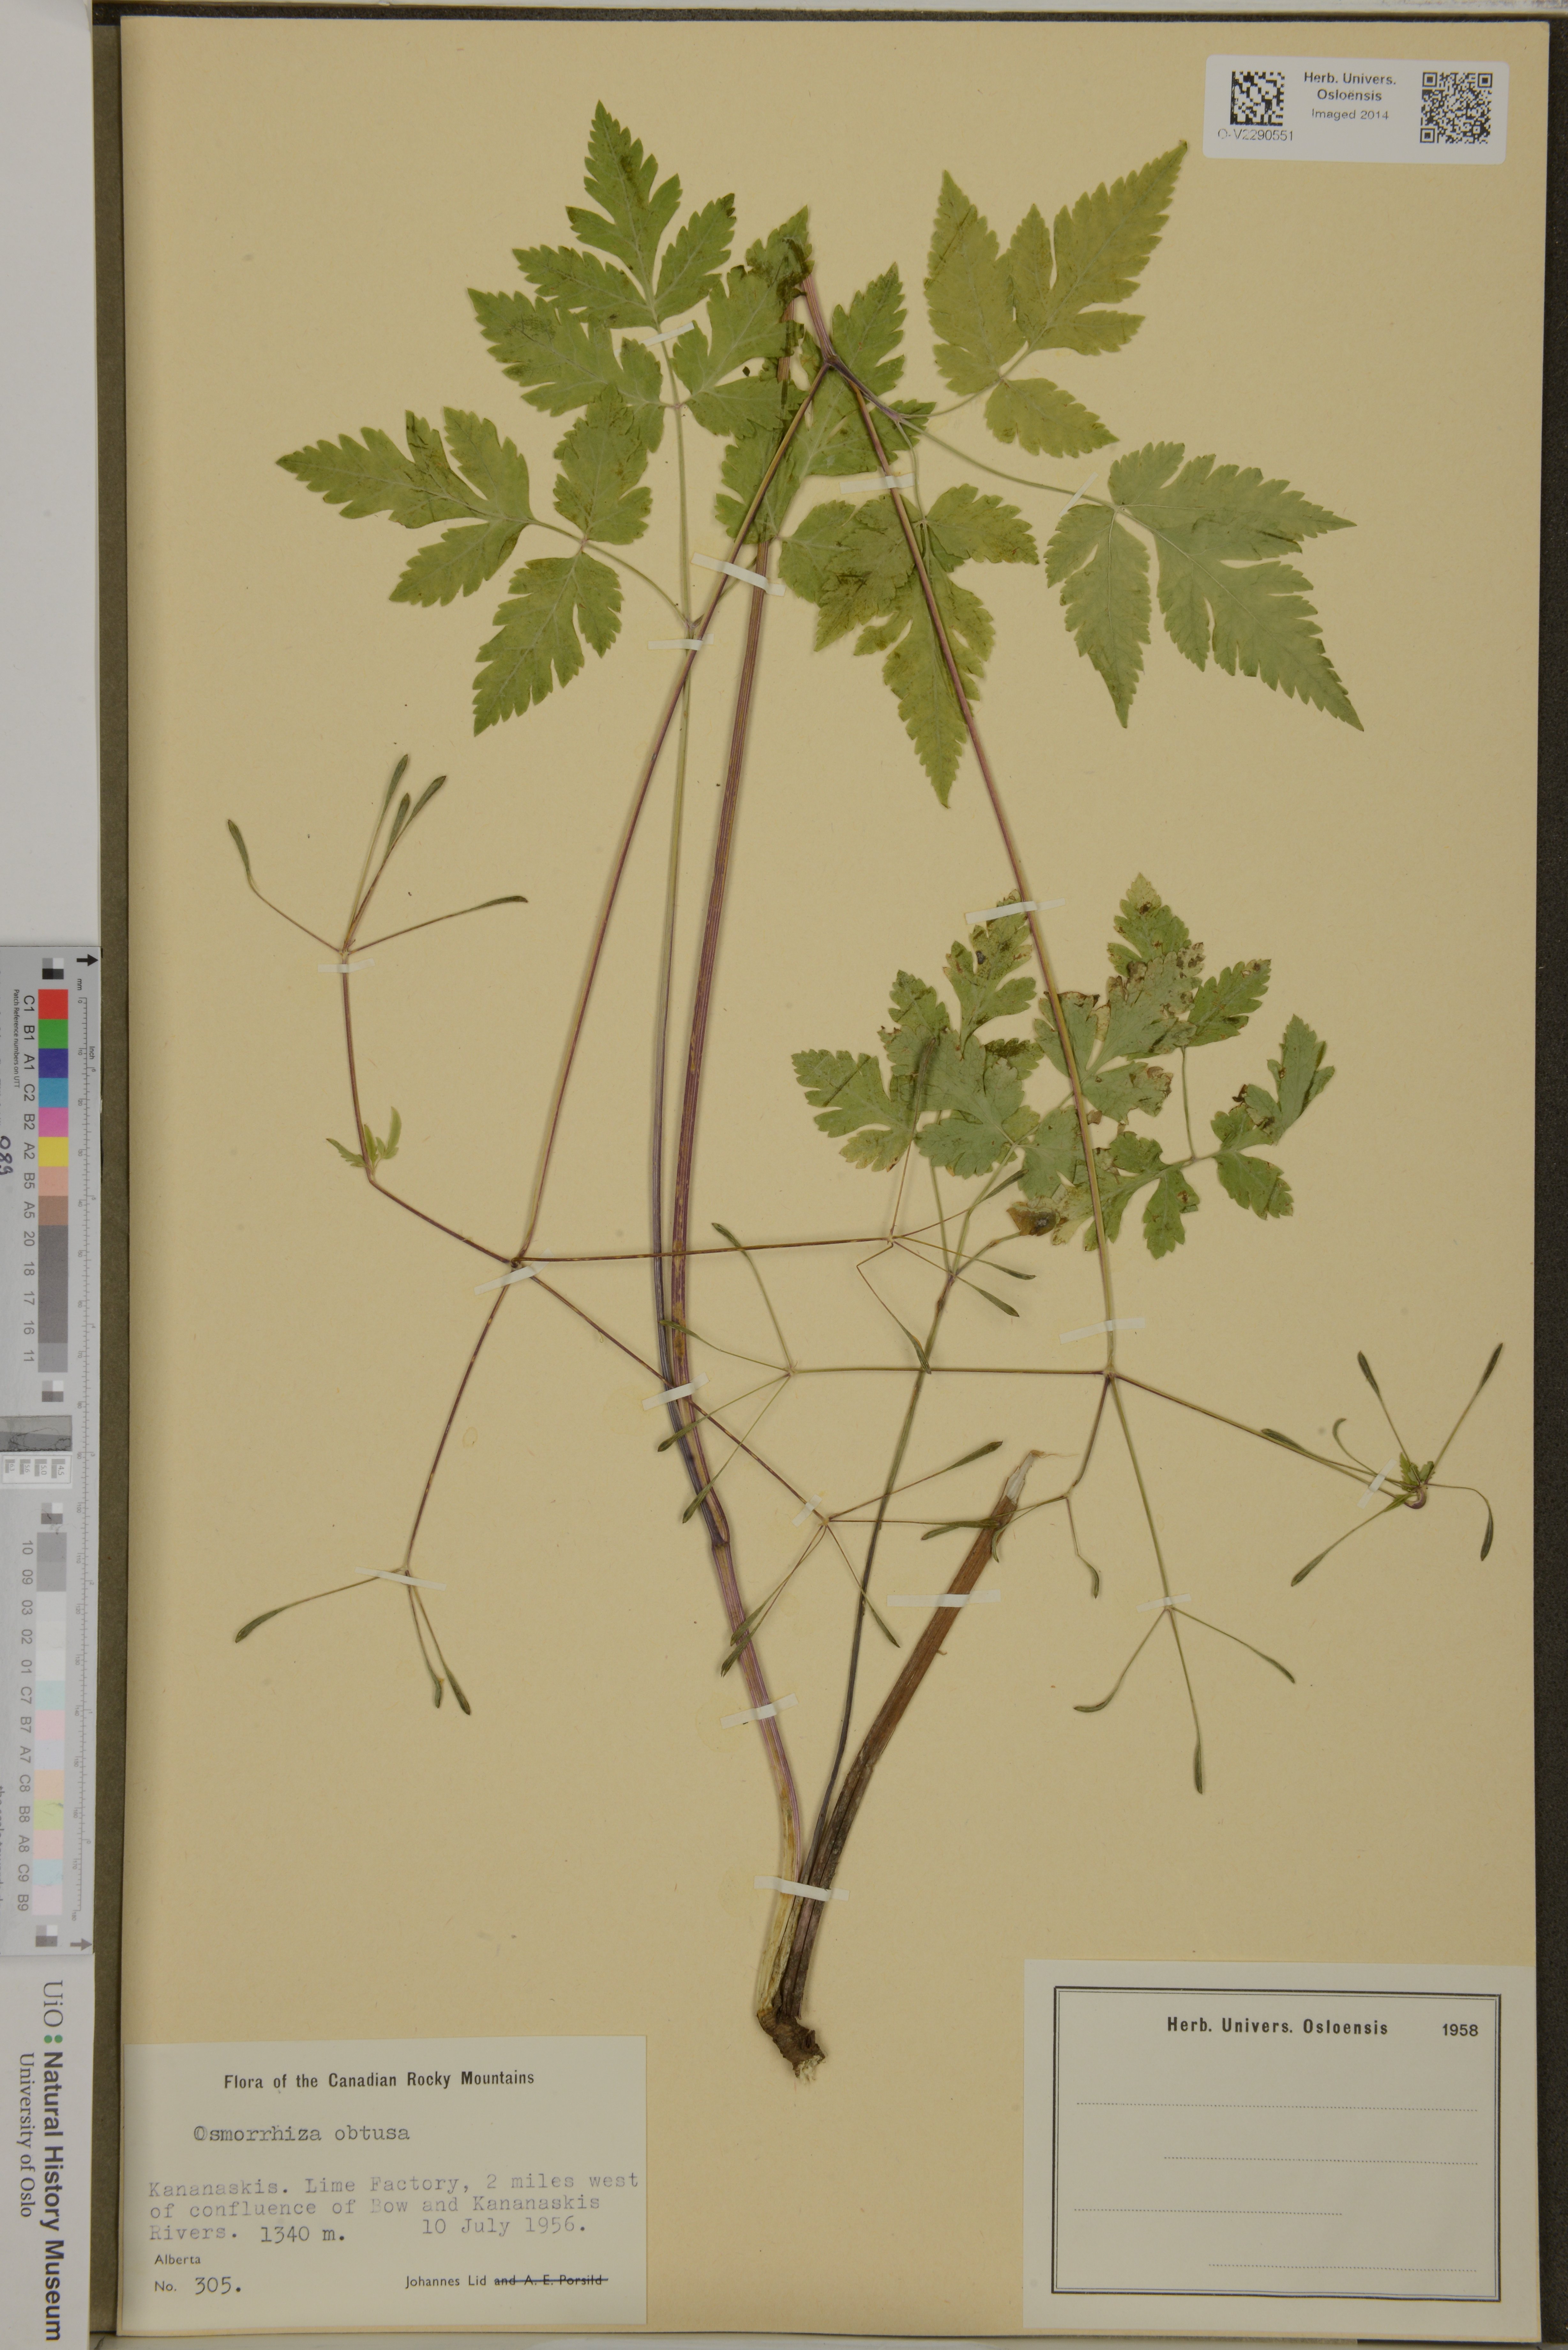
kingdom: Plantae
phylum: Tracheophyta
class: Magnoliopsida
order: Apiales
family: Apiaceae
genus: Osmorhiza
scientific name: Osmorhiza depauperata
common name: Blunt sweet cicely
